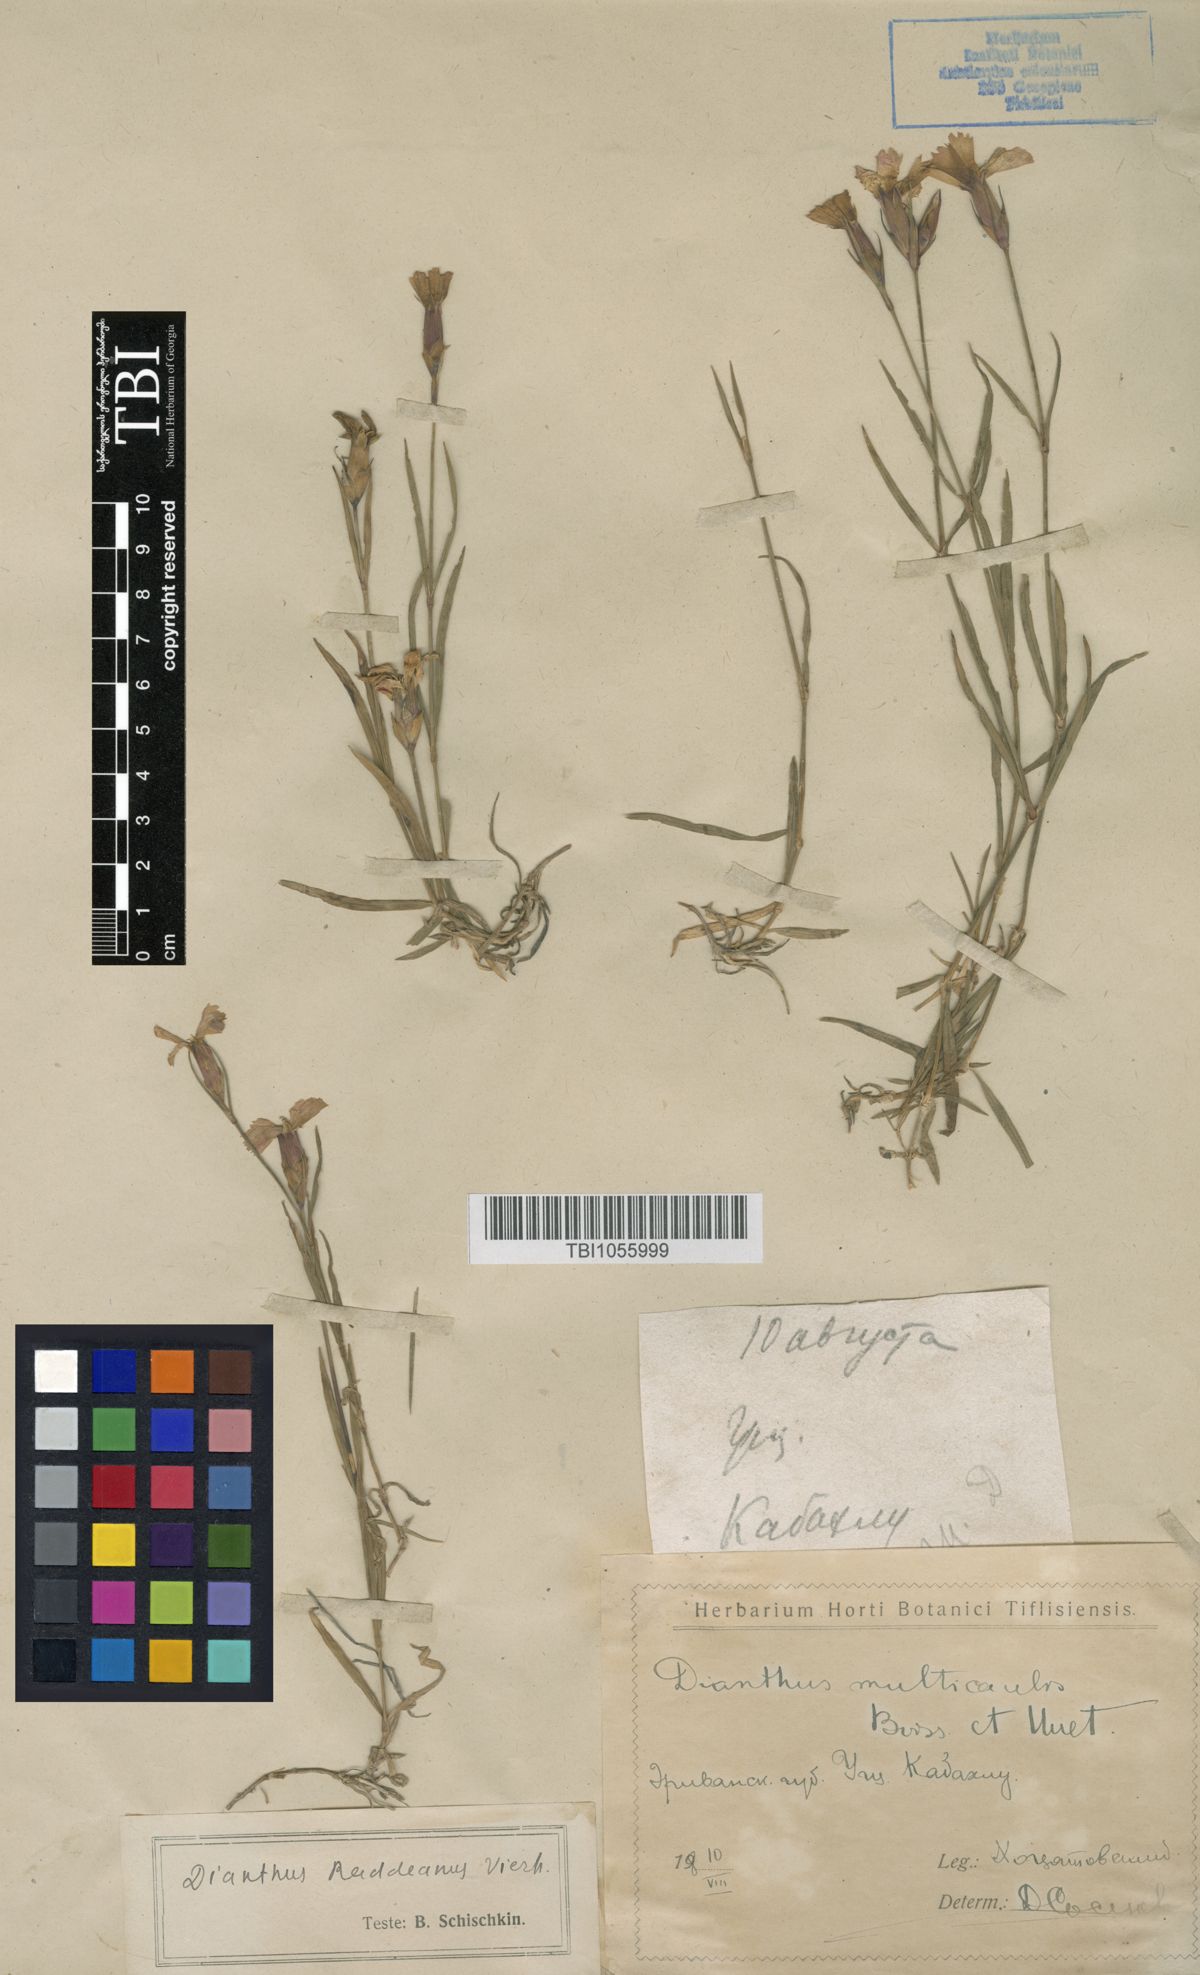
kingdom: Plantae
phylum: Tracheophyta
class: Magnoliopsida
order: Caryophyllales
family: Caryophyllaceae
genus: Dianthus
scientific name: Dianthus raddeanus
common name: Radde's pink
